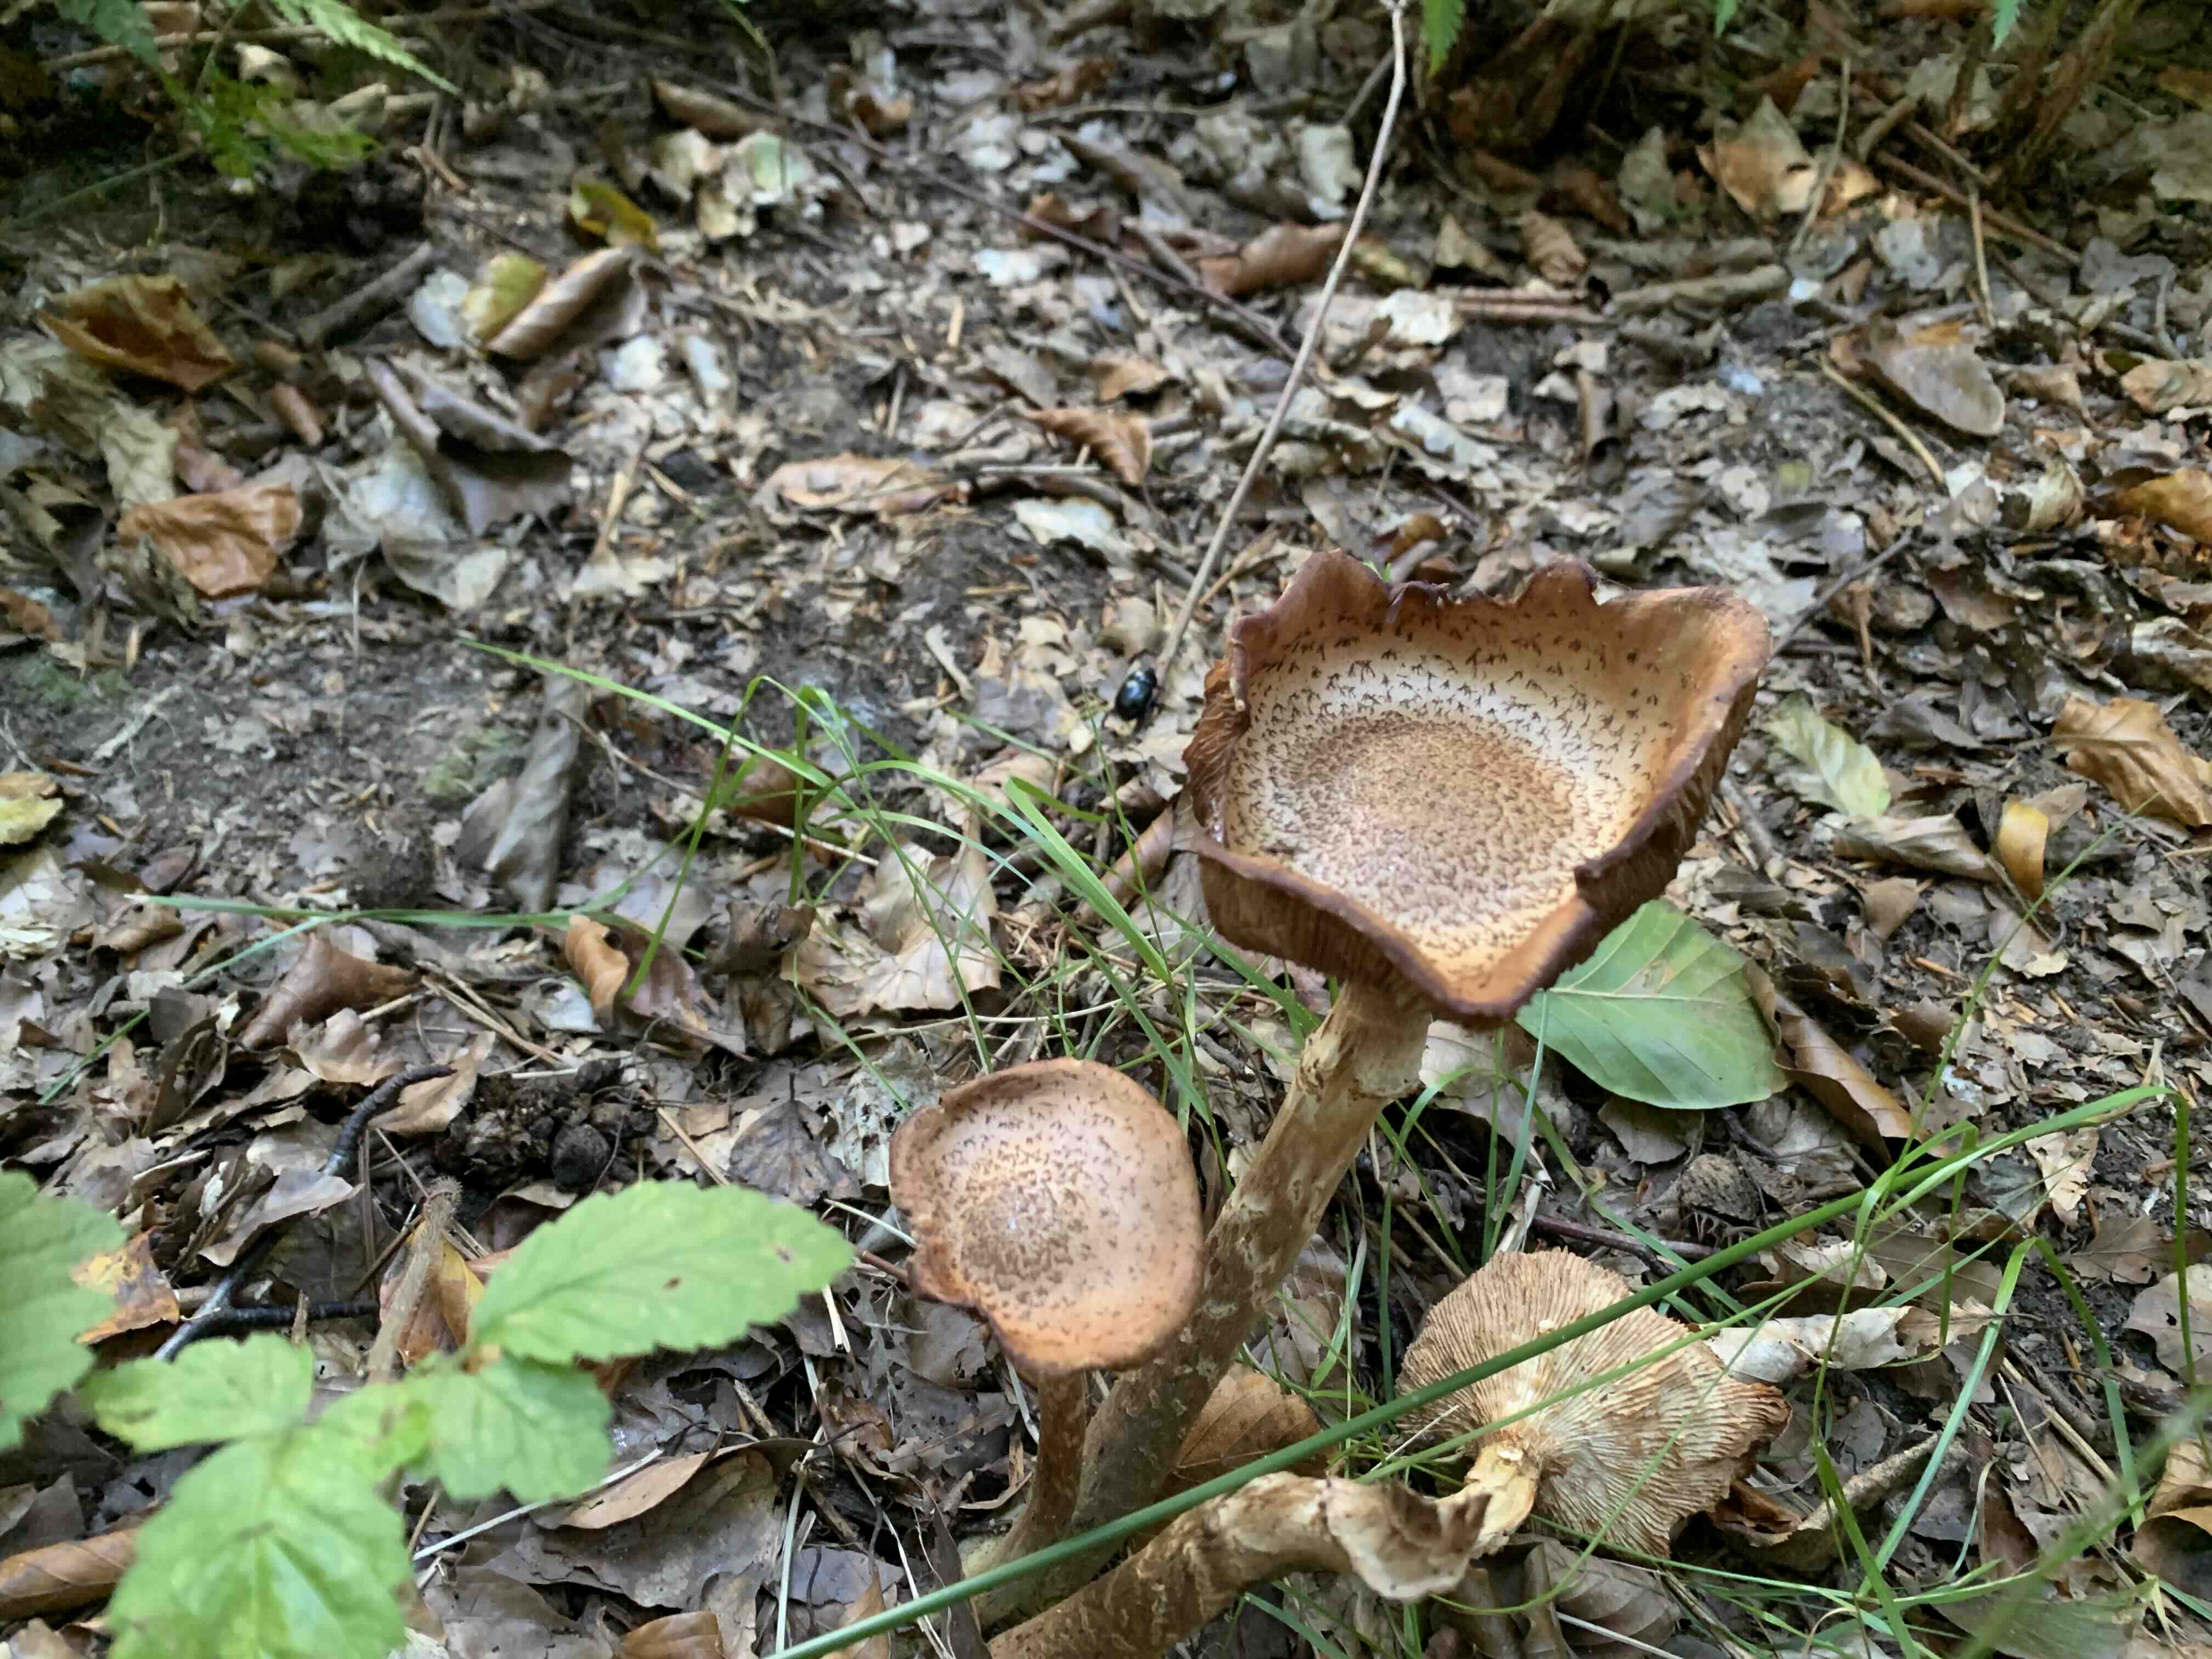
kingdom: Fungi
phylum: Basidiomycota
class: Agaricomycetes
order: Agaricales
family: Physalacriaceae
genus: Armillaria
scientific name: Armillaria ostoyae
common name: mørk honningsvamp
